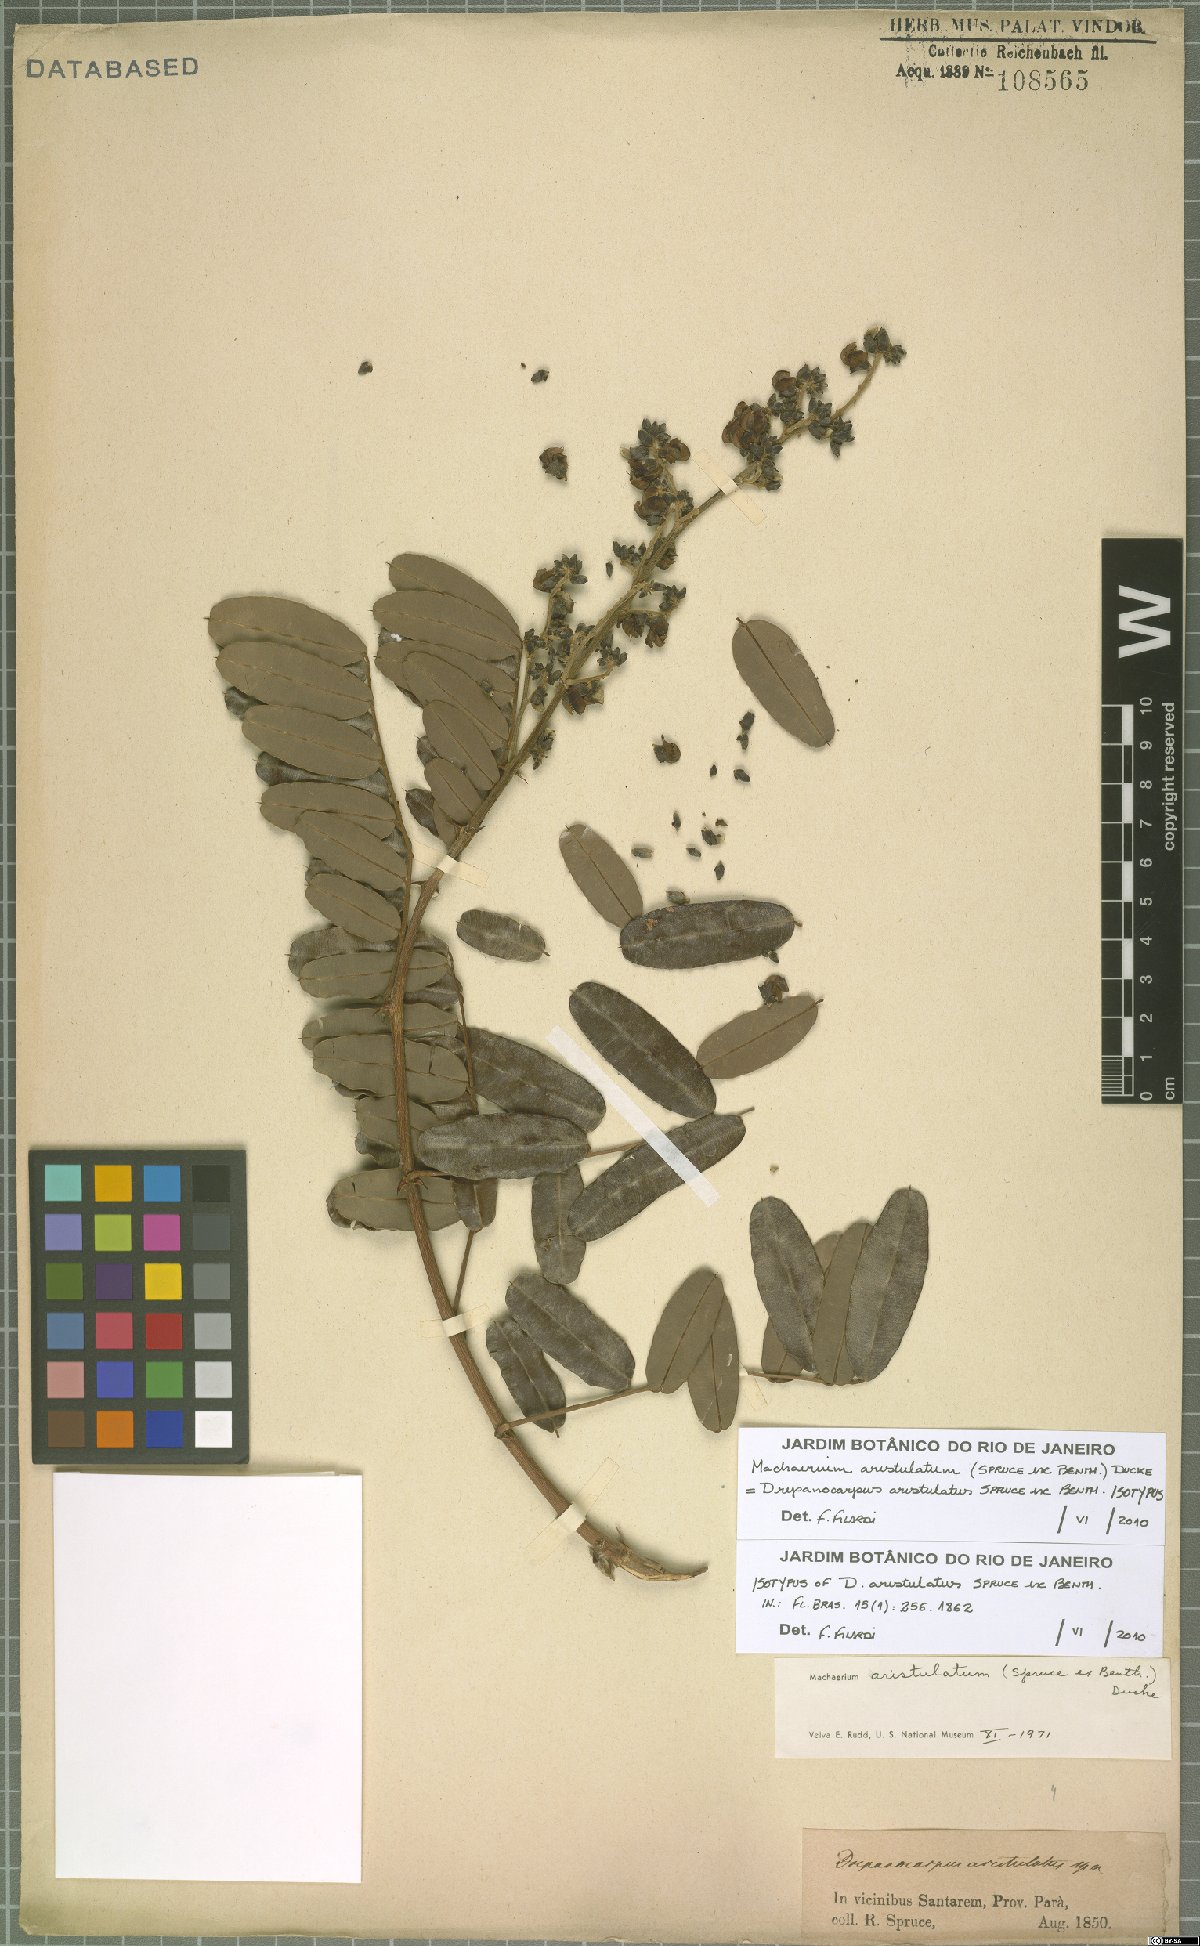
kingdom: Plantae
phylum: Tracheophyta
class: Magnoliopsida
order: Fabales
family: Fabaceae
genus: Machaerium
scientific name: Machaerium aristulatum
